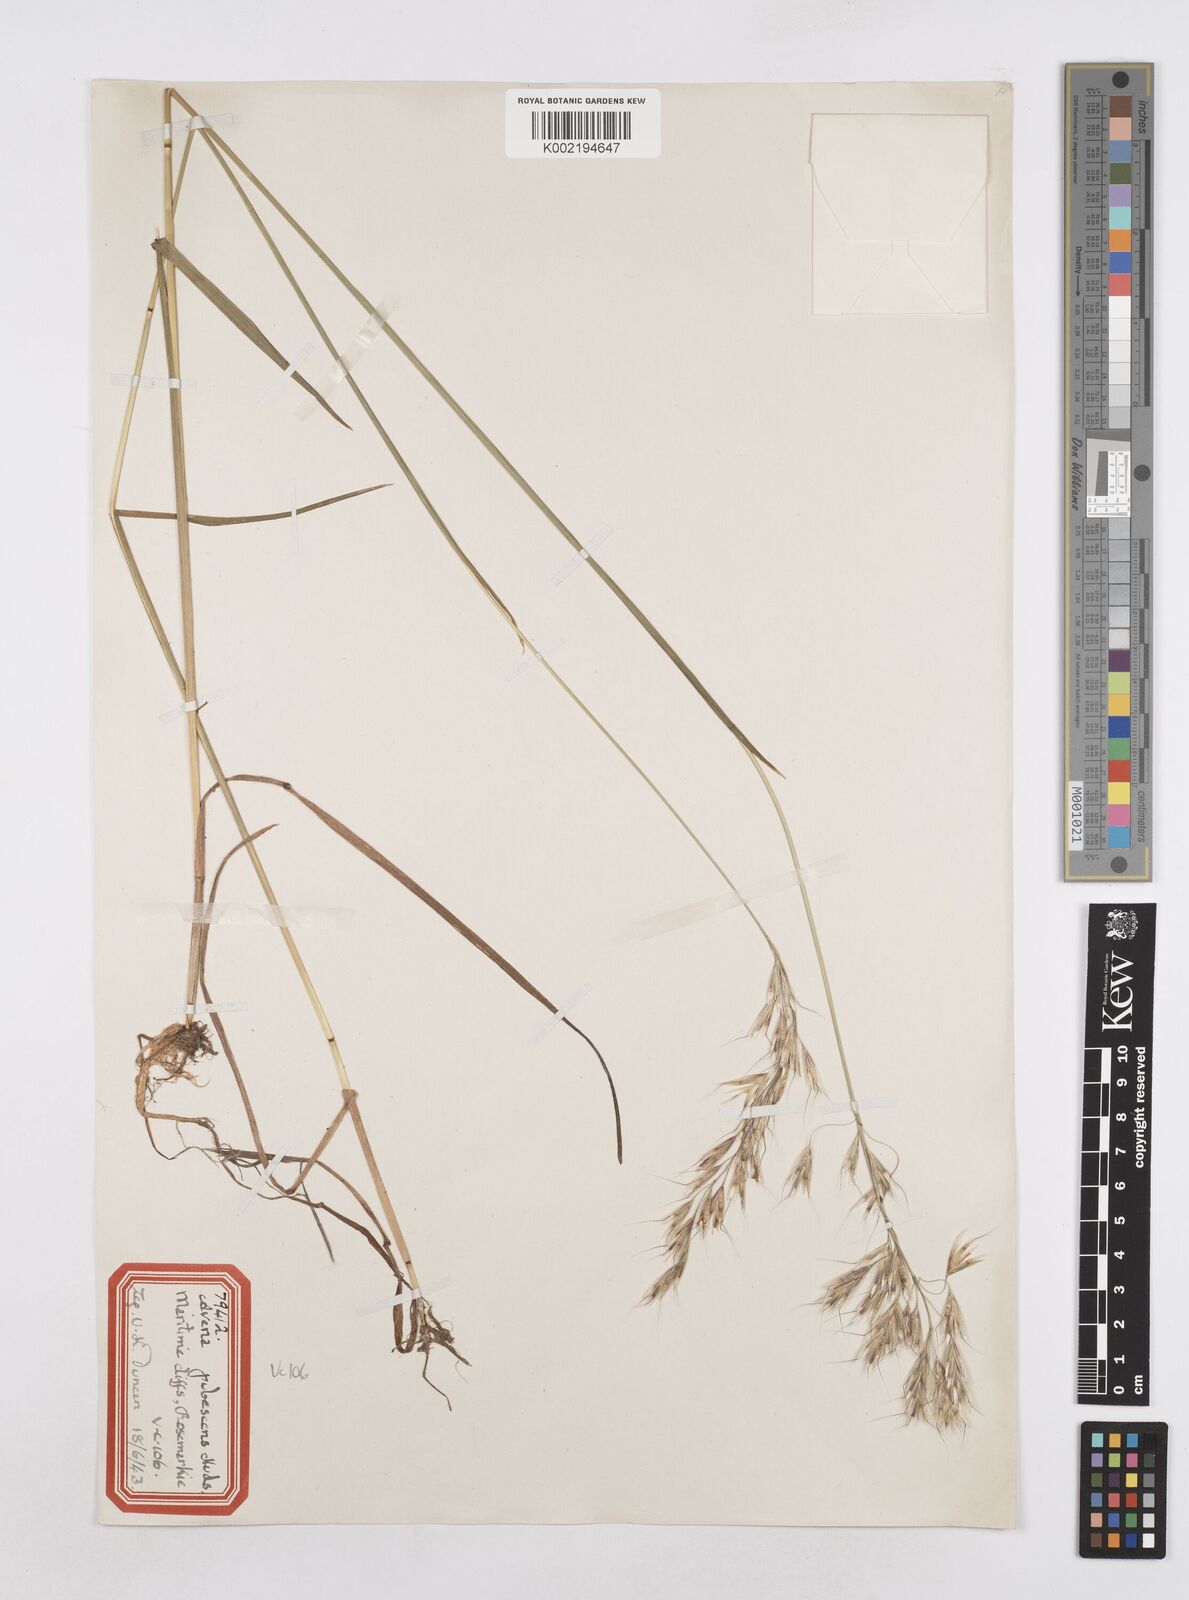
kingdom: Plantae
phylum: Tracheophyta
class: Liliopsida
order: Poales
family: Poaceae
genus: Avenula
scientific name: Avenula pubescens
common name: Downy alpine oatgrass
